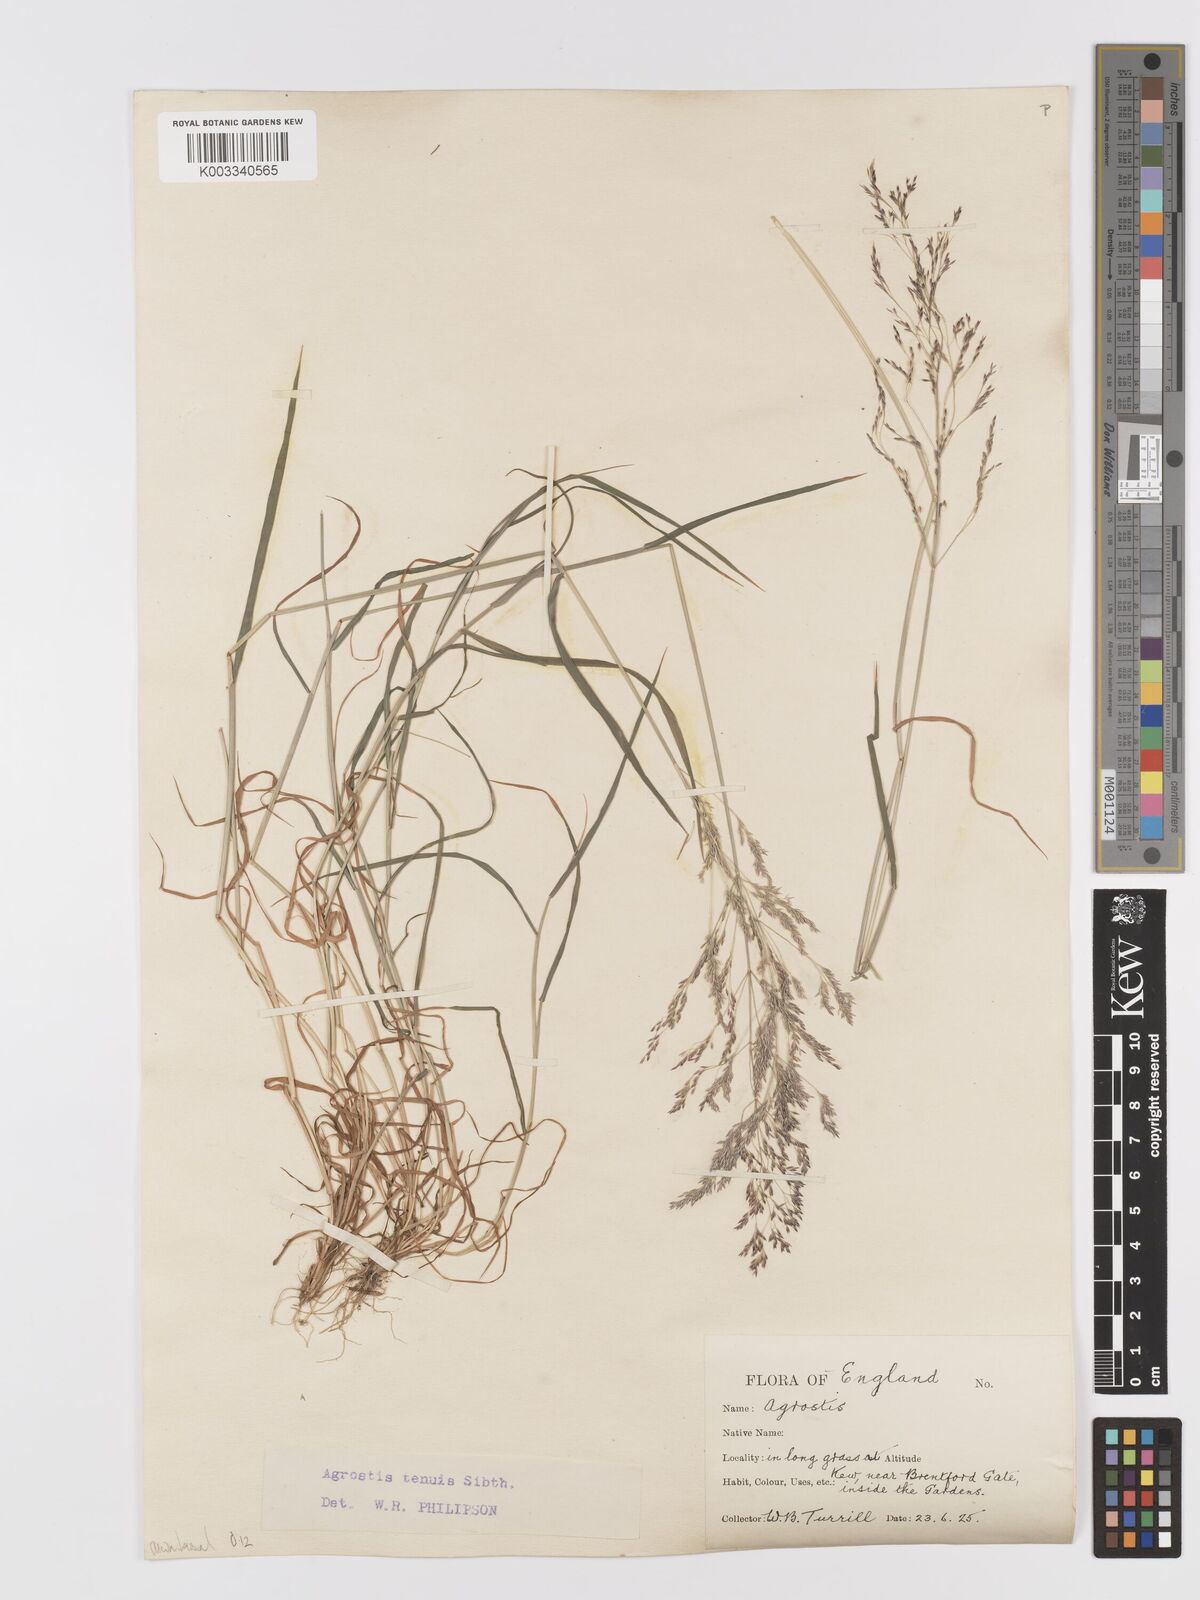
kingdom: Plantae
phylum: Tracheophyta
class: Liliopsida
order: Poales
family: Poaceae
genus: Agrostis
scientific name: Agrostis capillaris
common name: Colonial bentgrass
